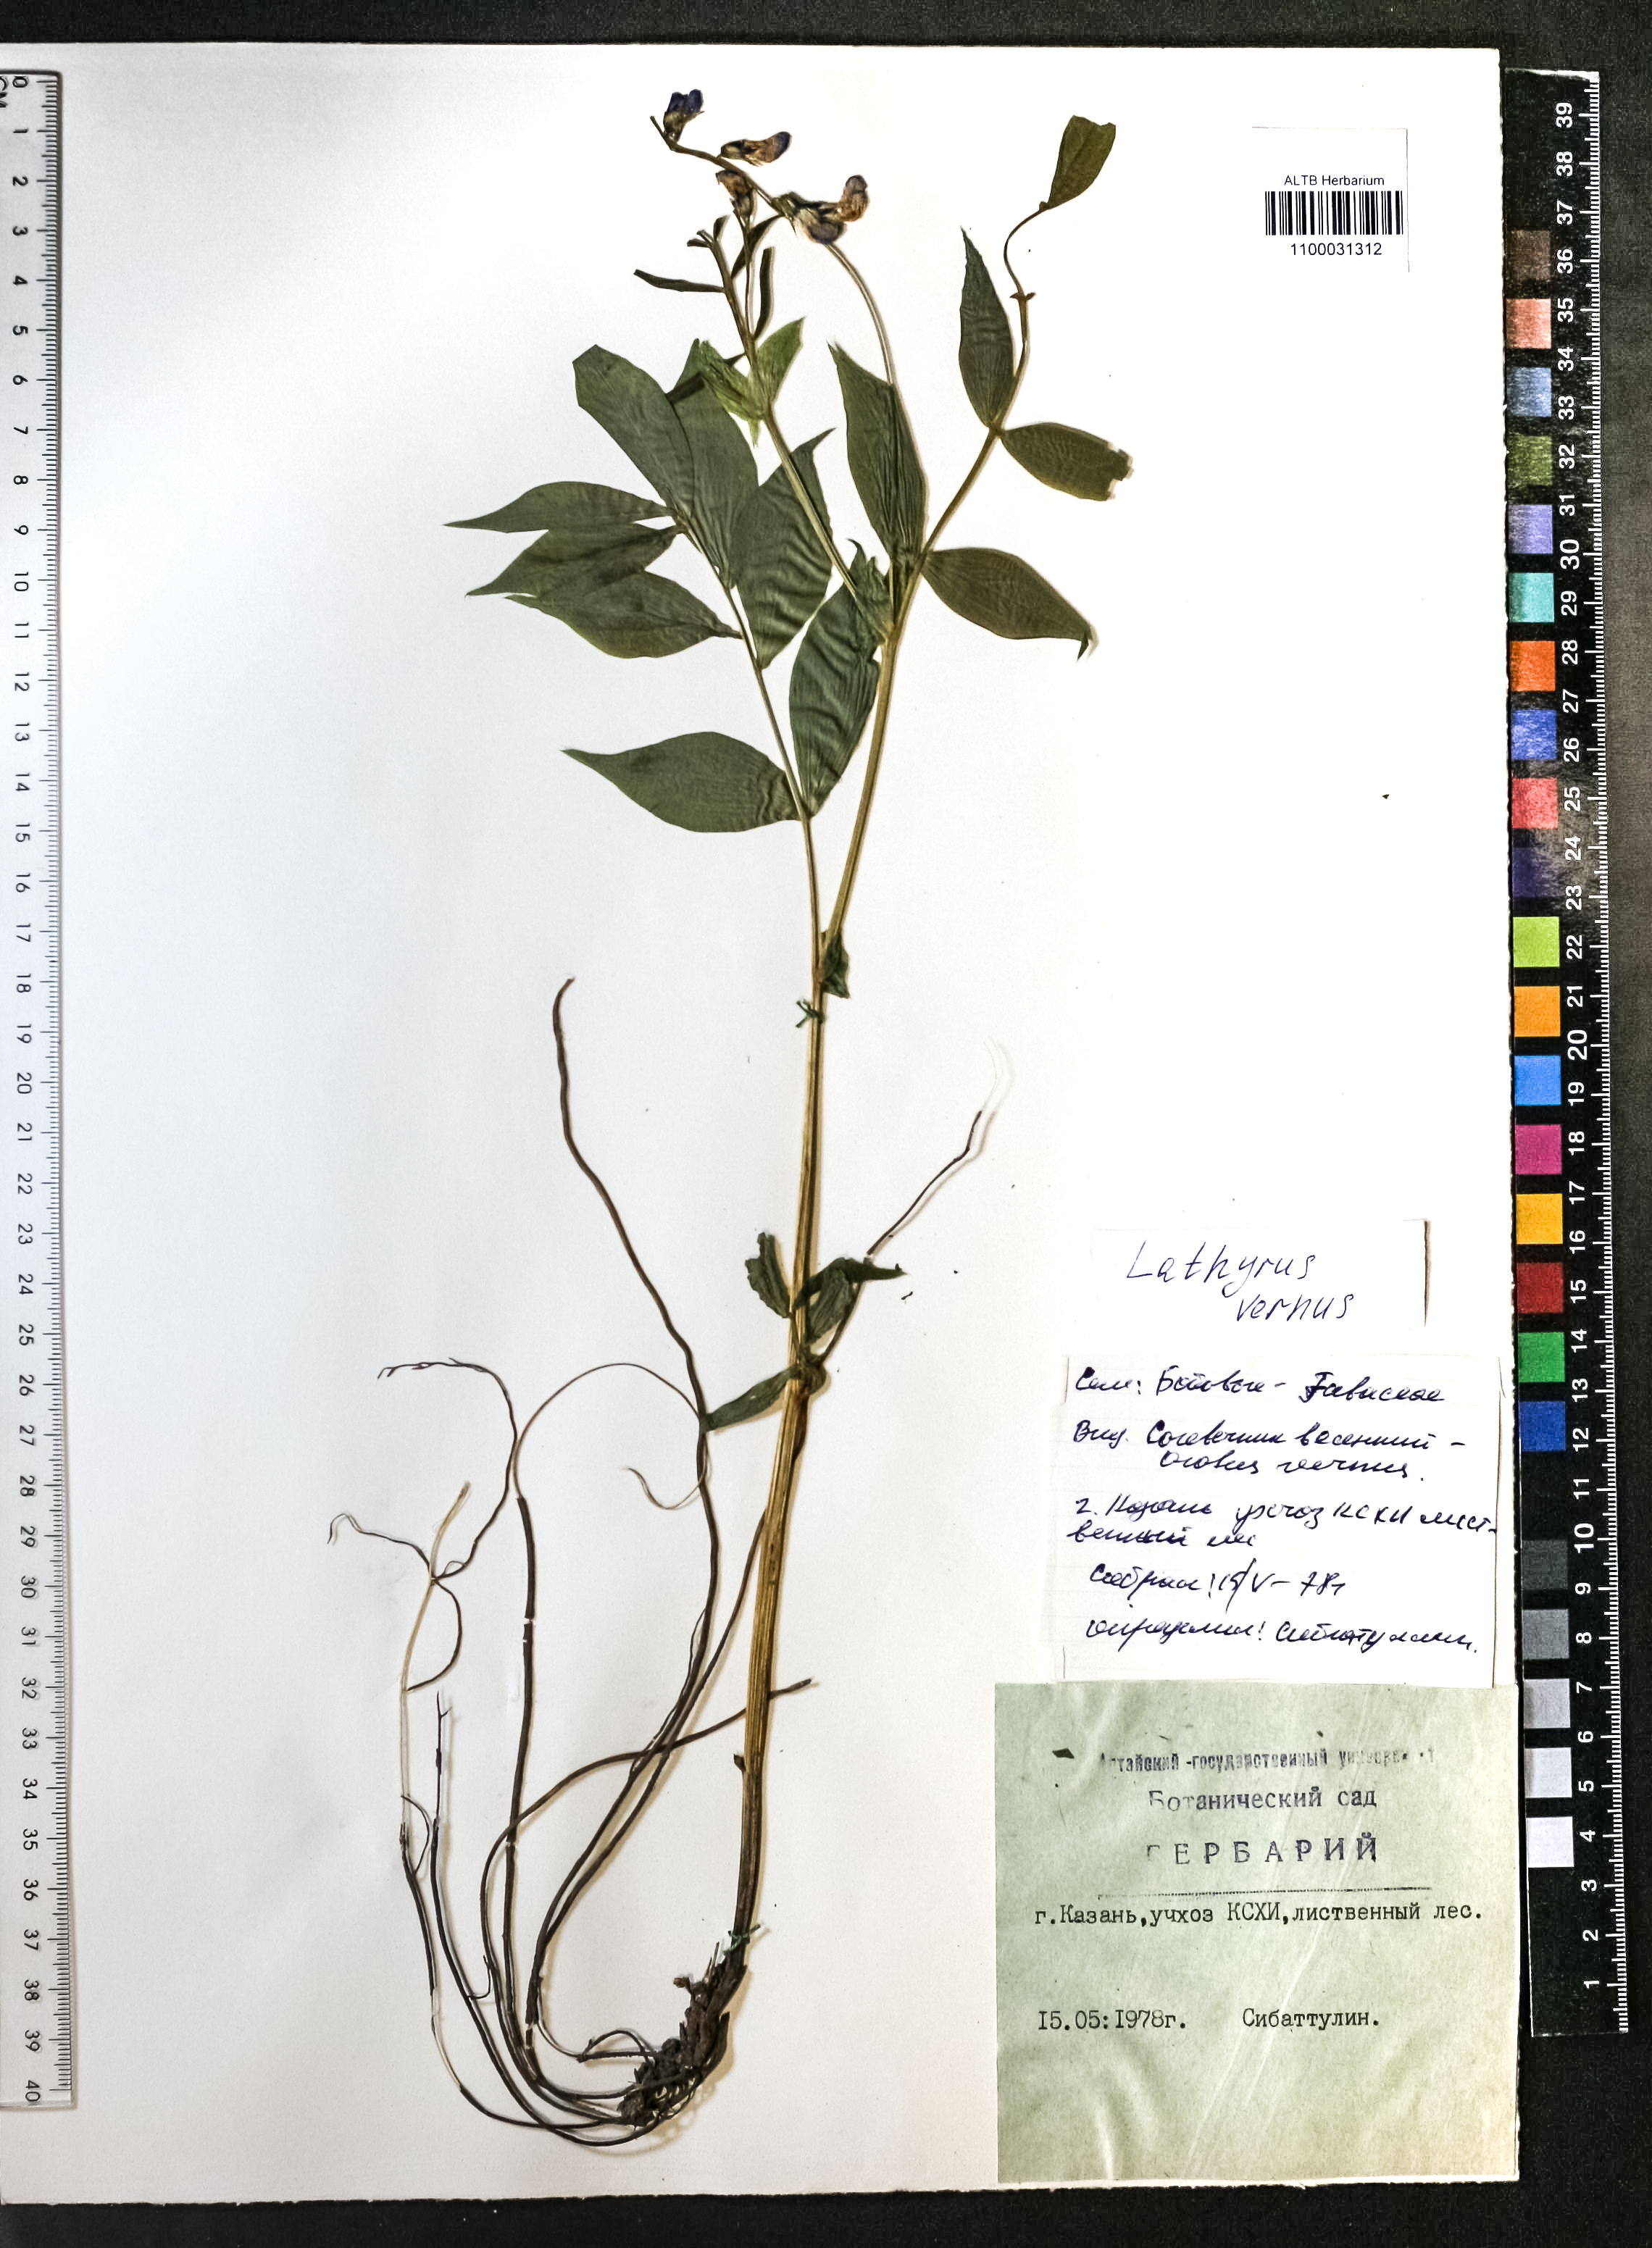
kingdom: Plantae
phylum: Tracheophyta
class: Magnoliopsida
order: Fabales
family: Fabaceae
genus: Lathyrus
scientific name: Lathyrus vernus
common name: Spring pea
